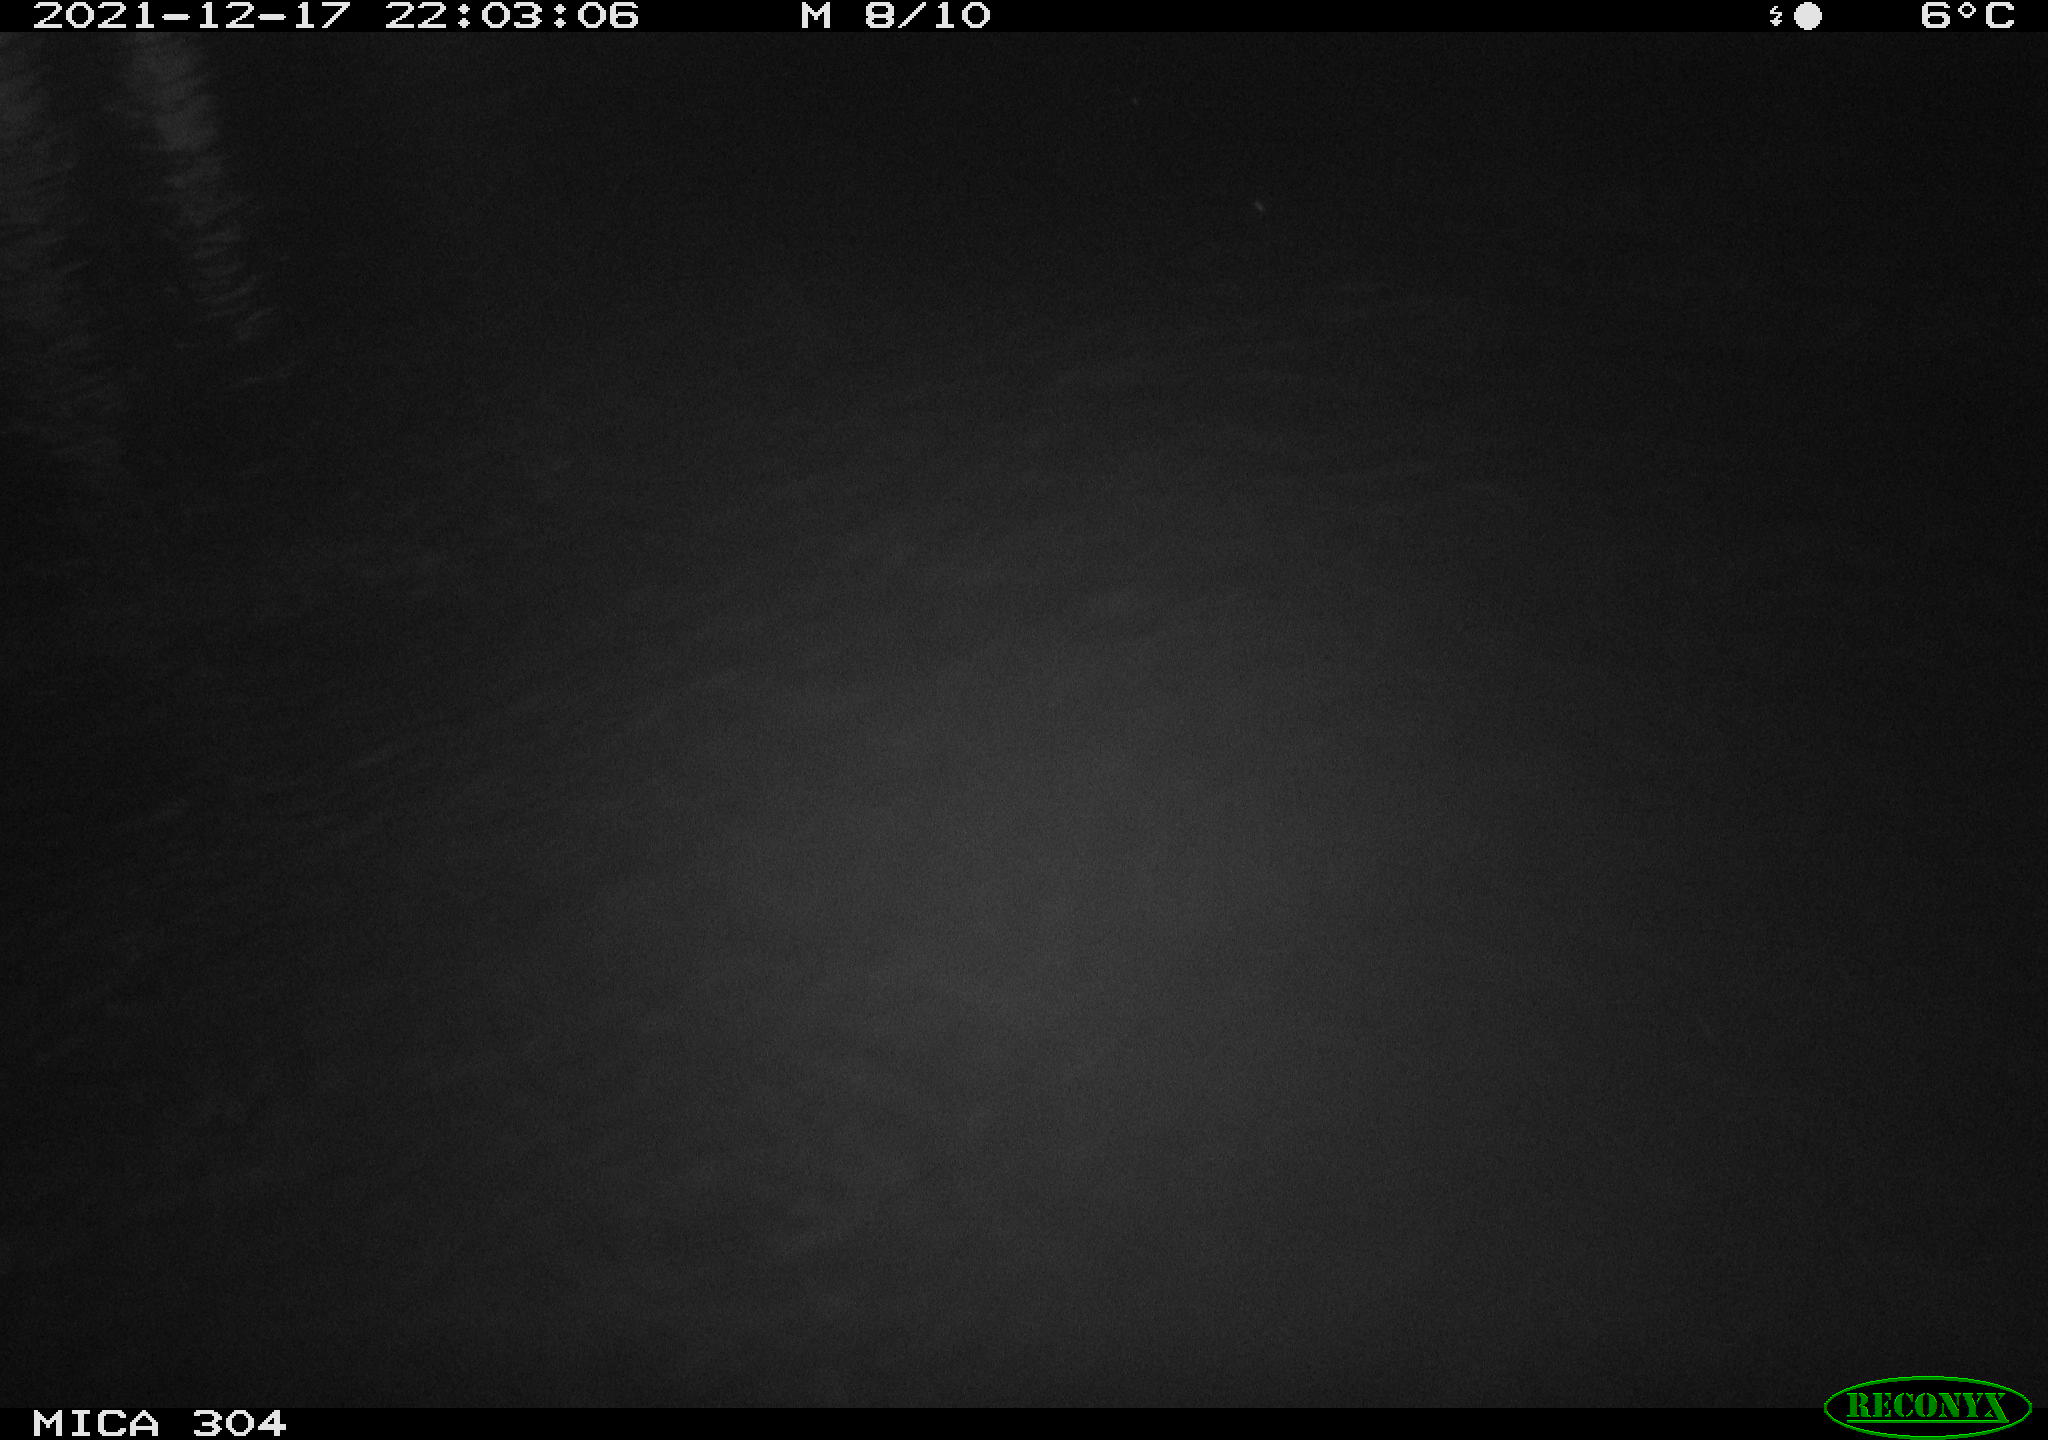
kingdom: Animalia
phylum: Chordata
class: Mammalia
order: Rodentia
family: Muridae
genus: Rattus
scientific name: Rattus norvegicus
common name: Brown rat
